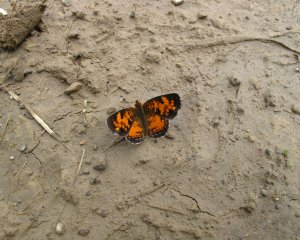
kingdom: Animalia
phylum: Arthropoda
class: Insecta
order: Lepidoptera
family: Nymphalidae
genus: Phyciodes
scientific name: Phyciodes tharos
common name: Northern Crescent
